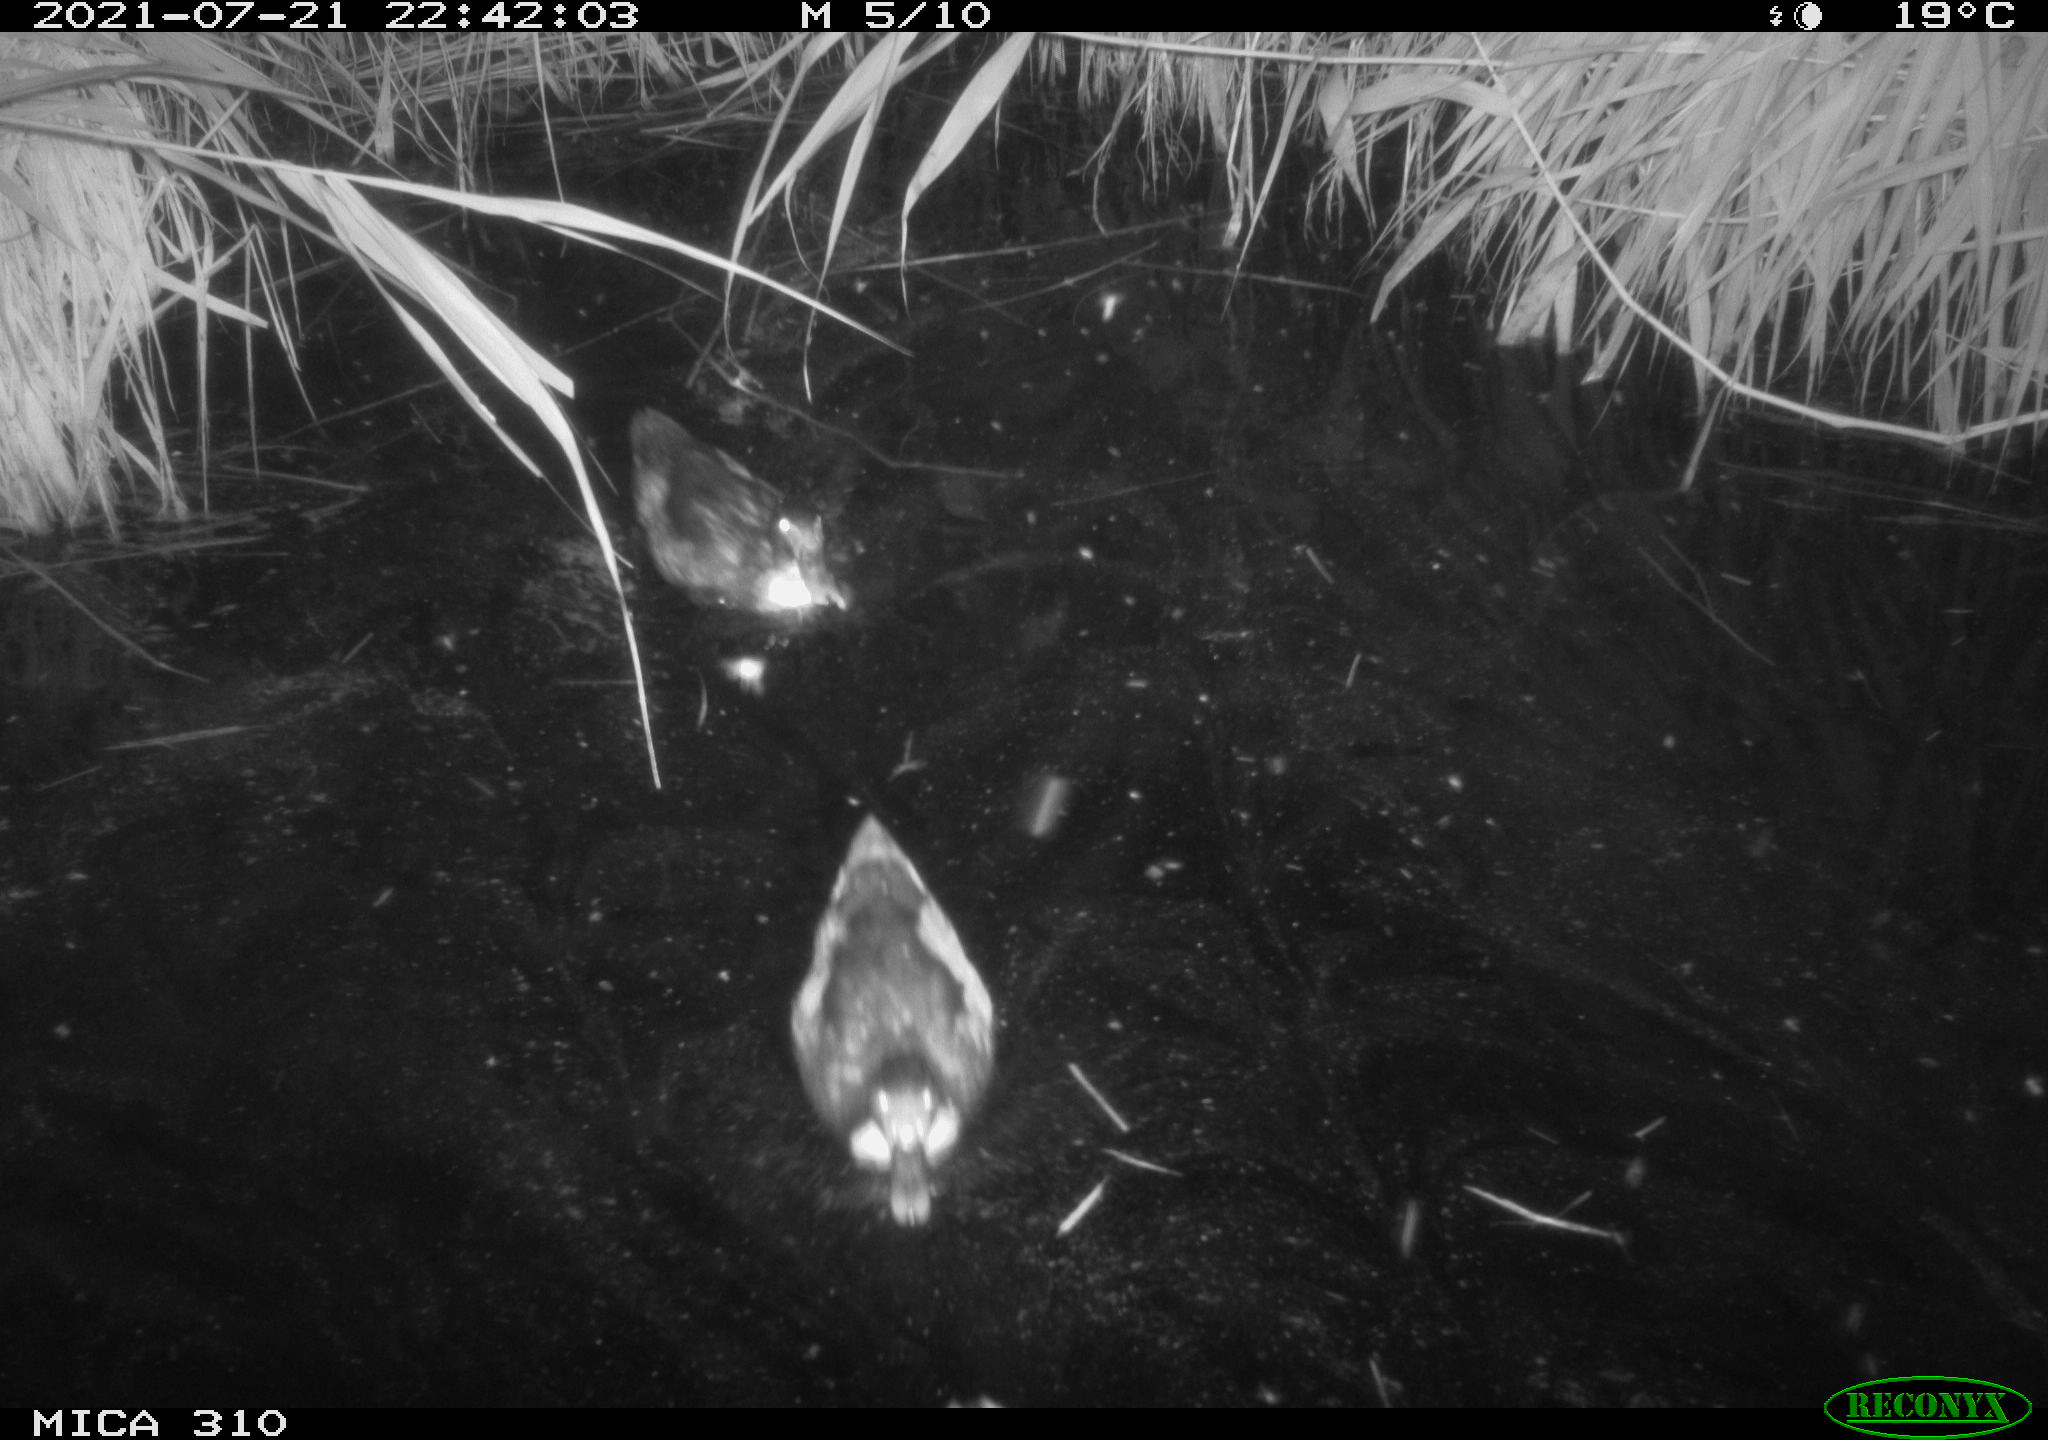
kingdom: Animalia
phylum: Chordata
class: Aves
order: Gruiformes
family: Rallidae
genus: Gallinula
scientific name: Gallinula chloropus
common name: Common moorhen
